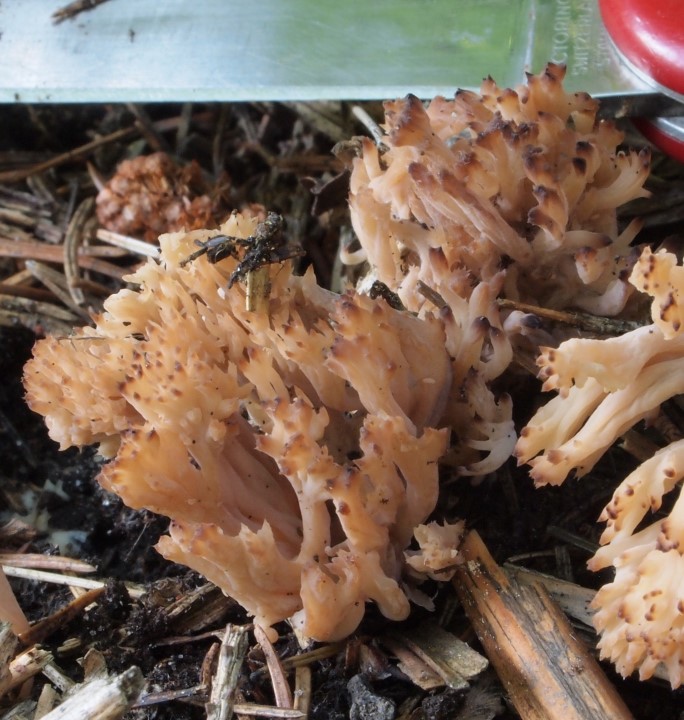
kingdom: Fungi
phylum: Basidiomycota
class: Agaricomycetes
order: Gomphales
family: Gomphaceae
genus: Phaeoclavulina
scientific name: Phaeoclavulina corrugata
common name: peber-koralsvamp
